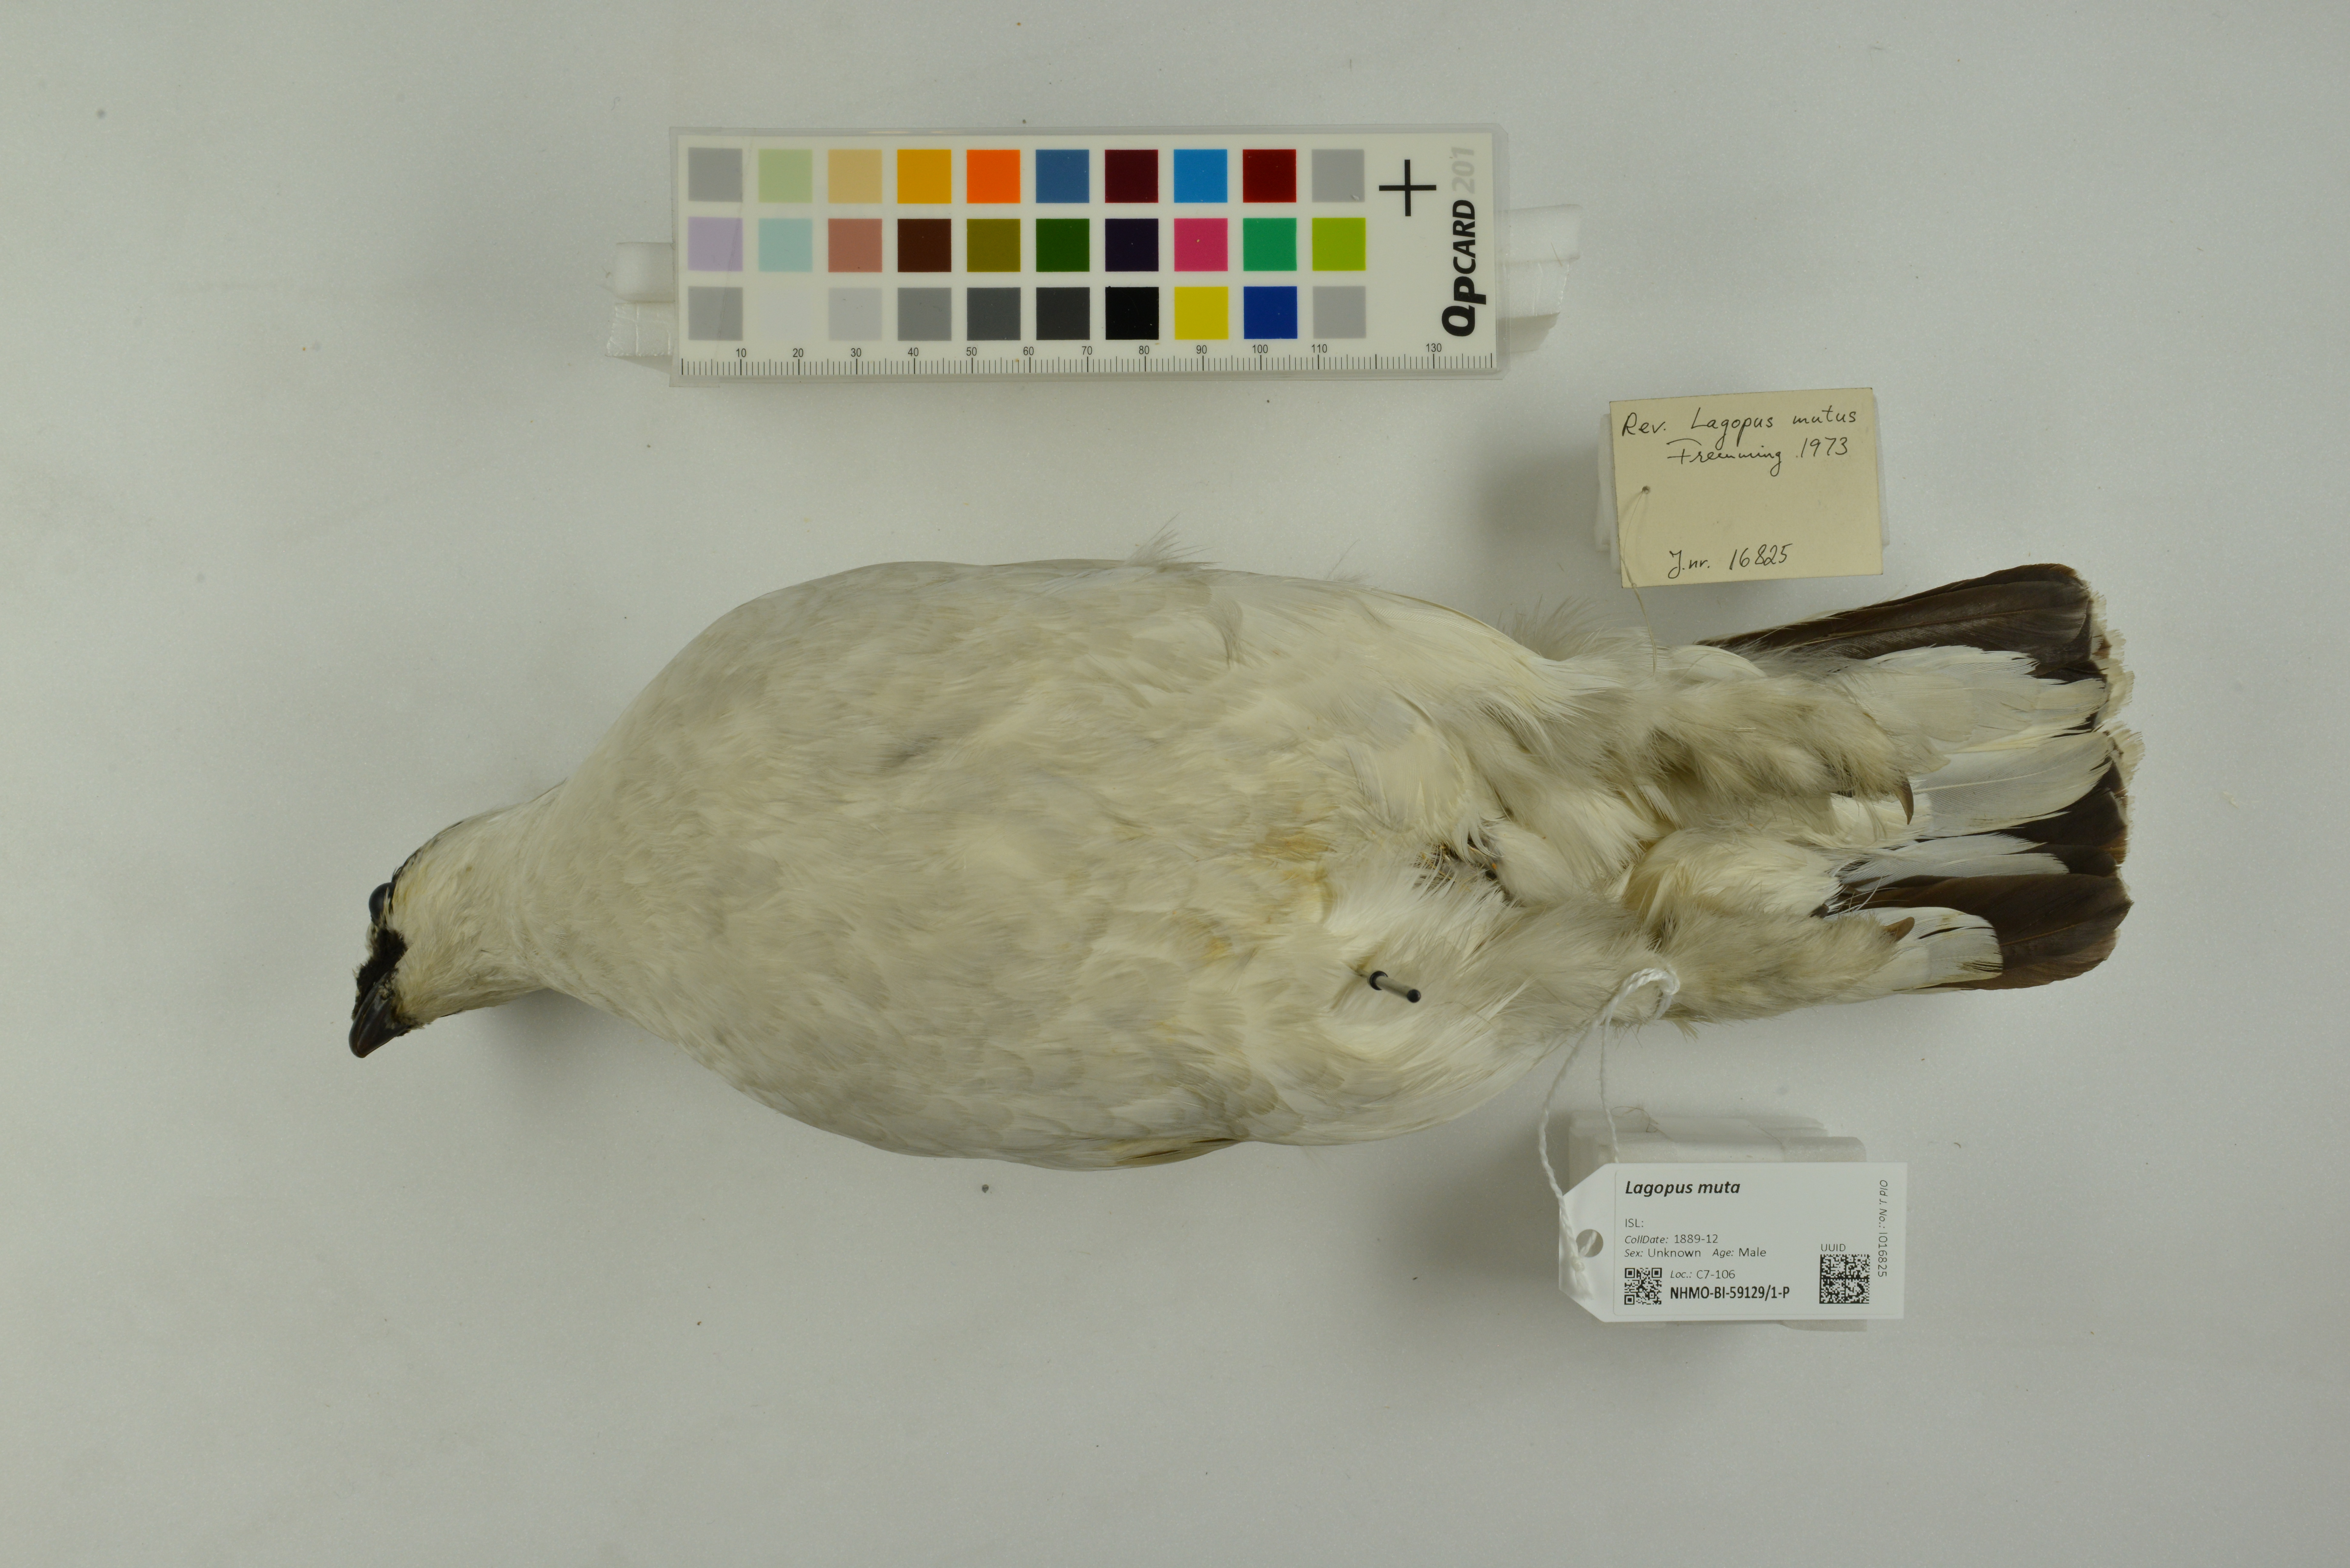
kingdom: Animalia
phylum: Chordata
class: Aves
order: Galliformes
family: Phasianidae
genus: Lagopus
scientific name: Lagopus muta
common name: Rock ptarmigan
